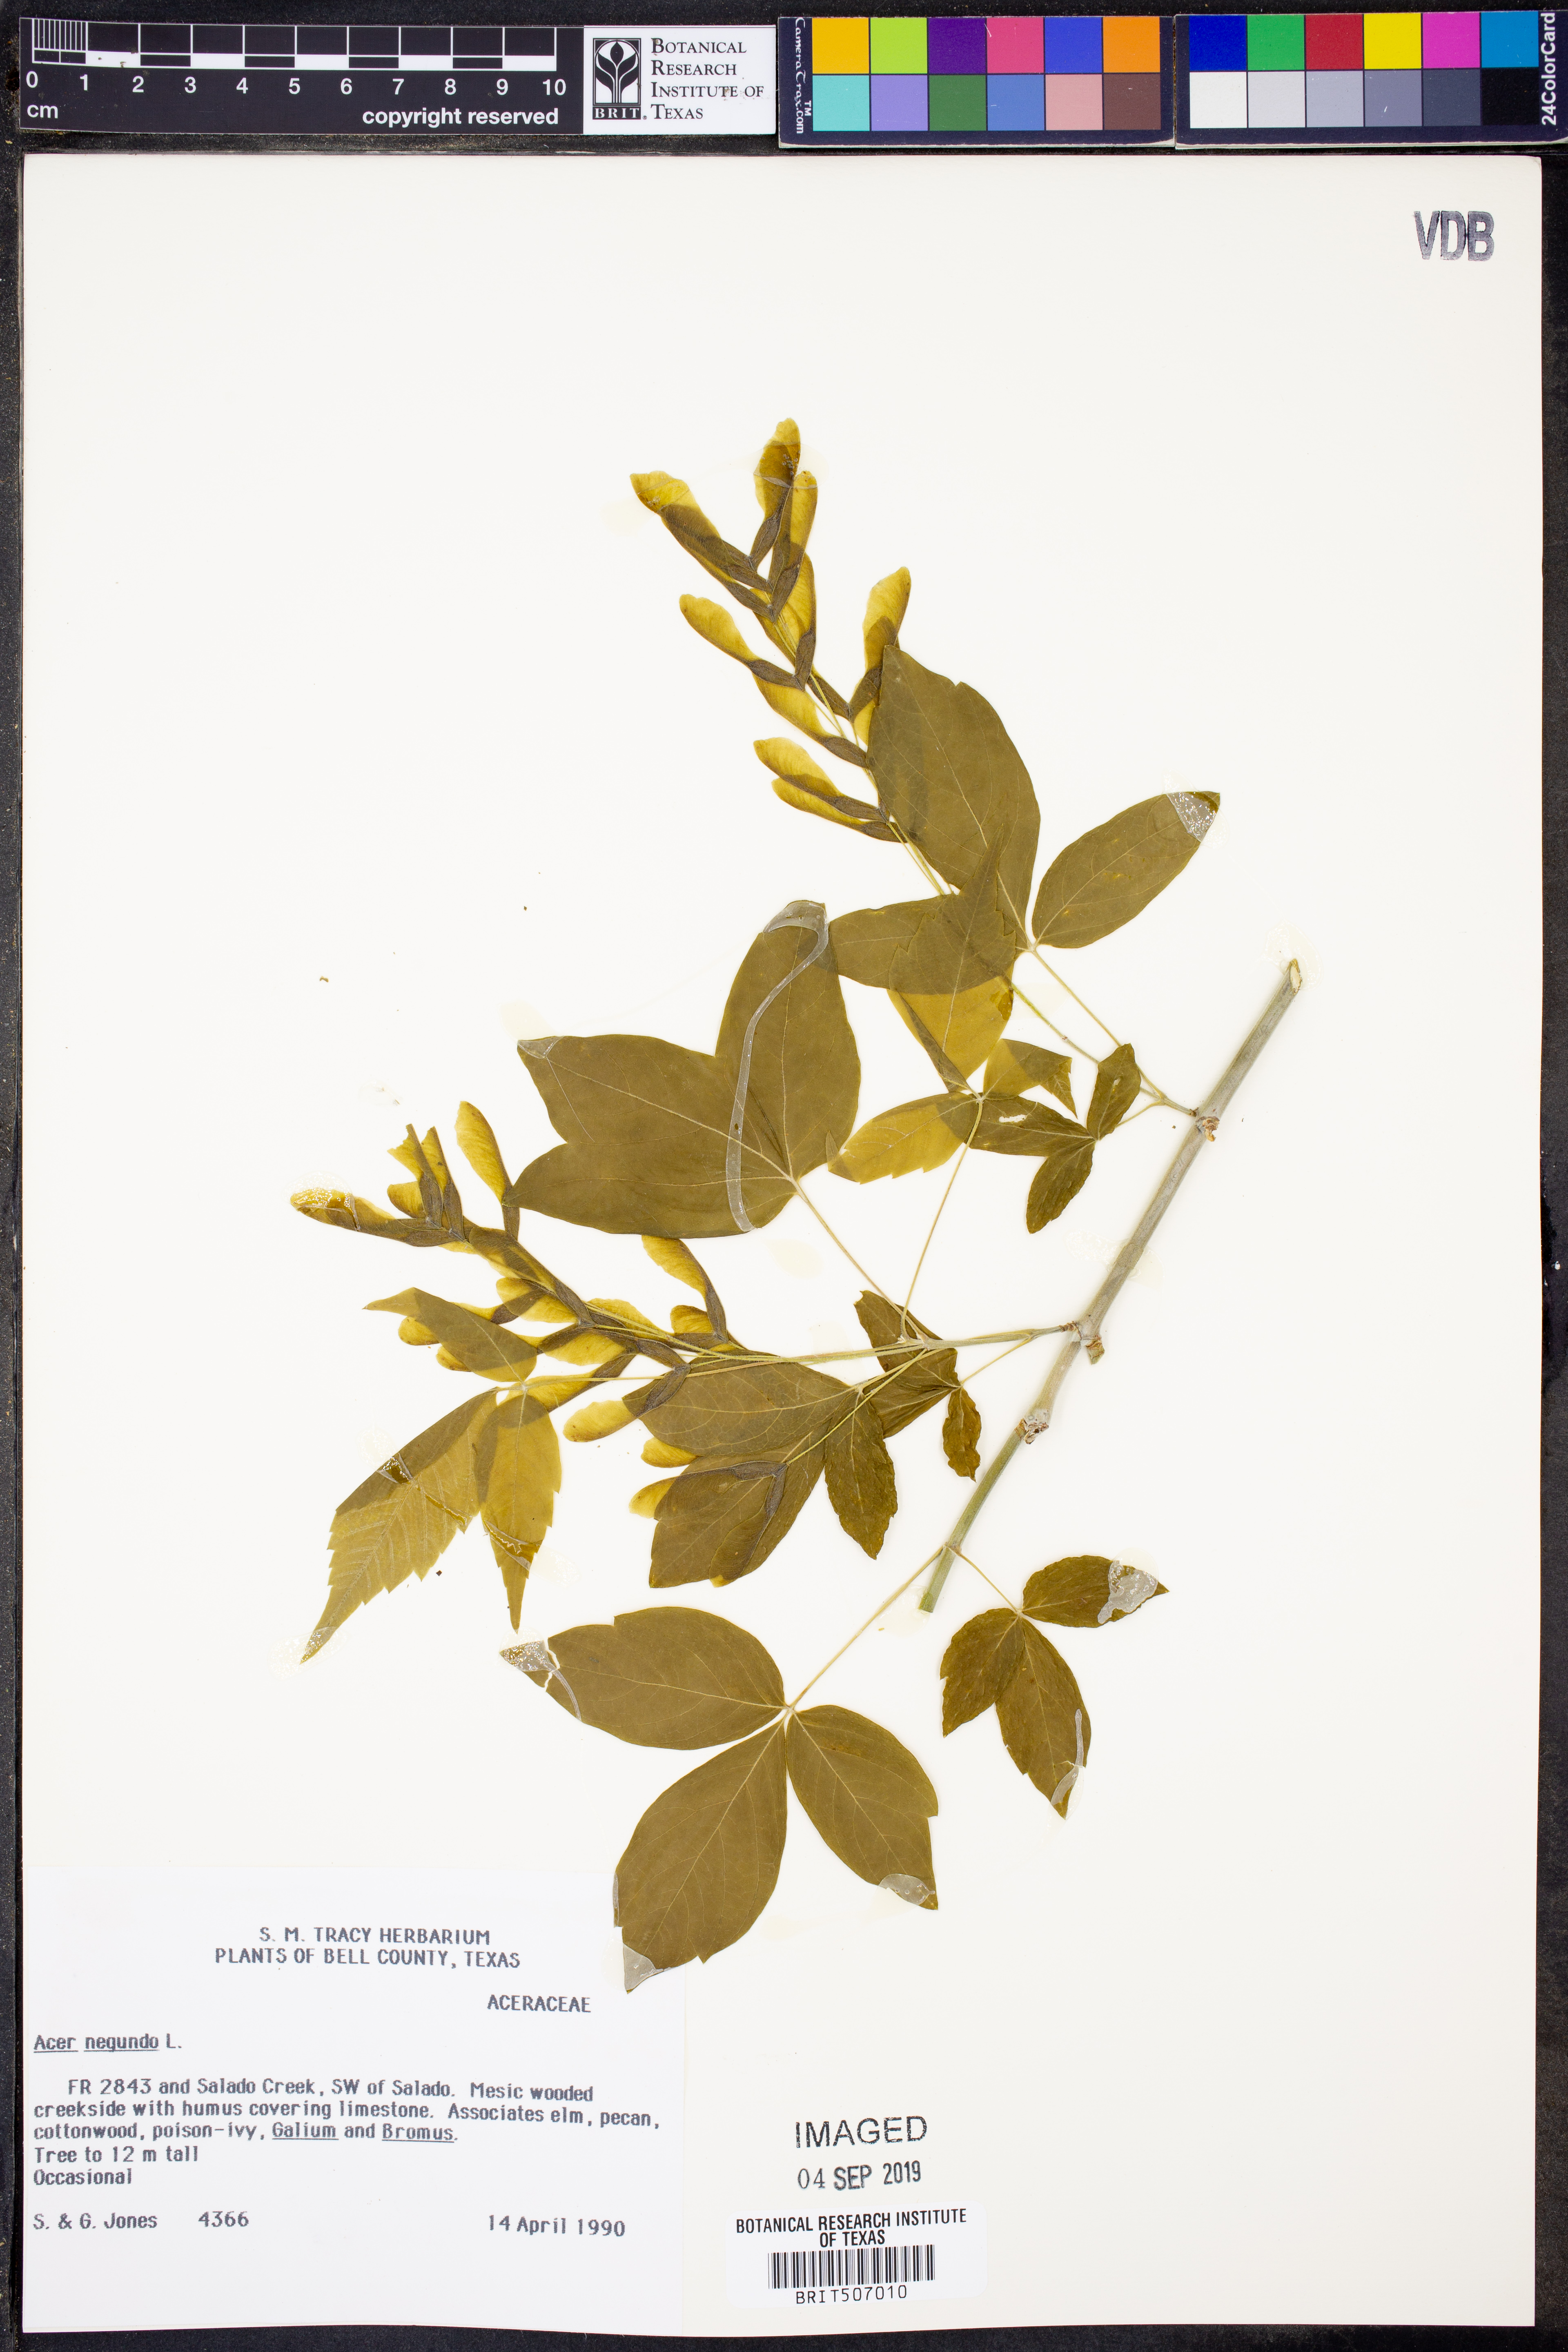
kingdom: Plantae
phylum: Tracheophyta
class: Magnoliopsida
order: Sapindales
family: Sapindaceae
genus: Acer
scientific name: Acer negundo
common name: Ashleaf maple
